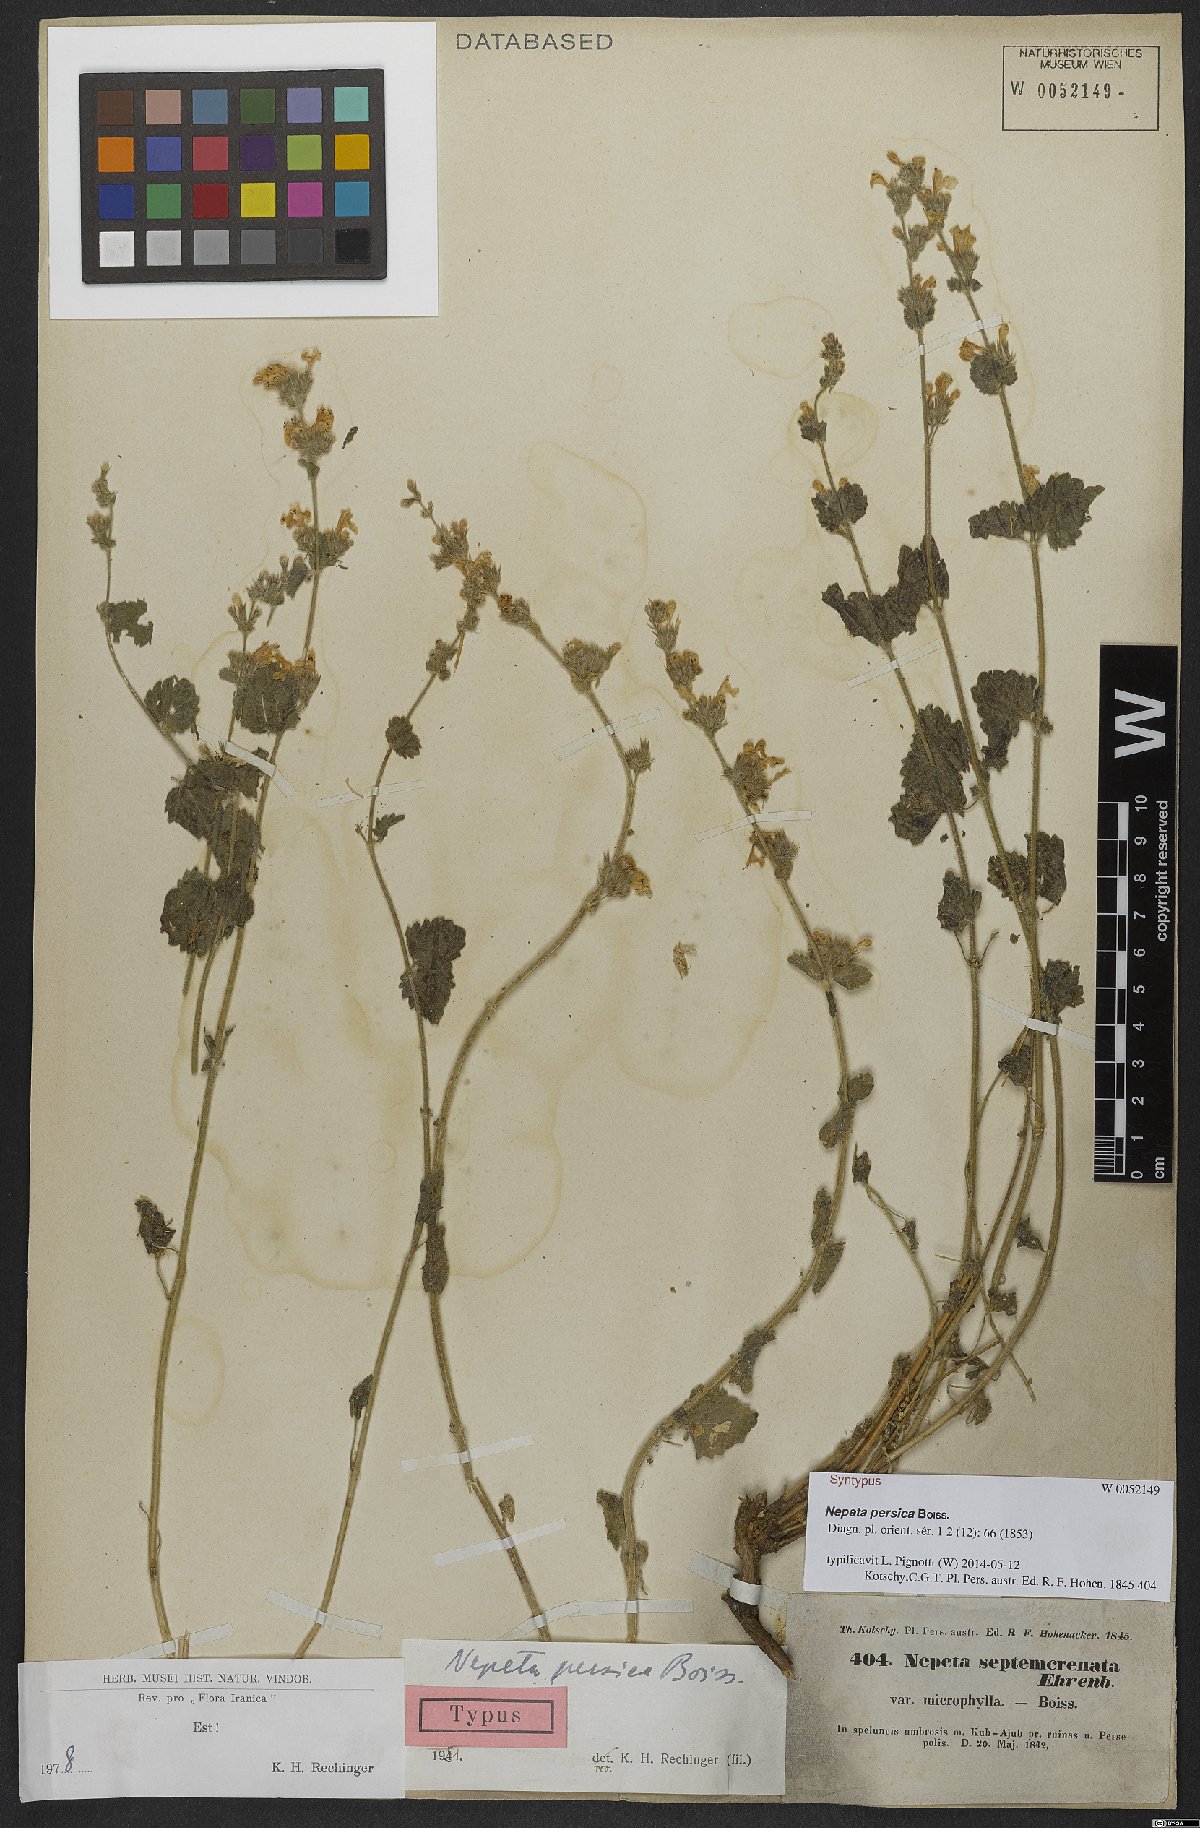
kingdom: Plantae
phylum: Tracheophyta
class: Magnoliopsida
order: Lamiales
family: Lamiaceae
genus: Nepeta
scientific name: Nepeta persica
